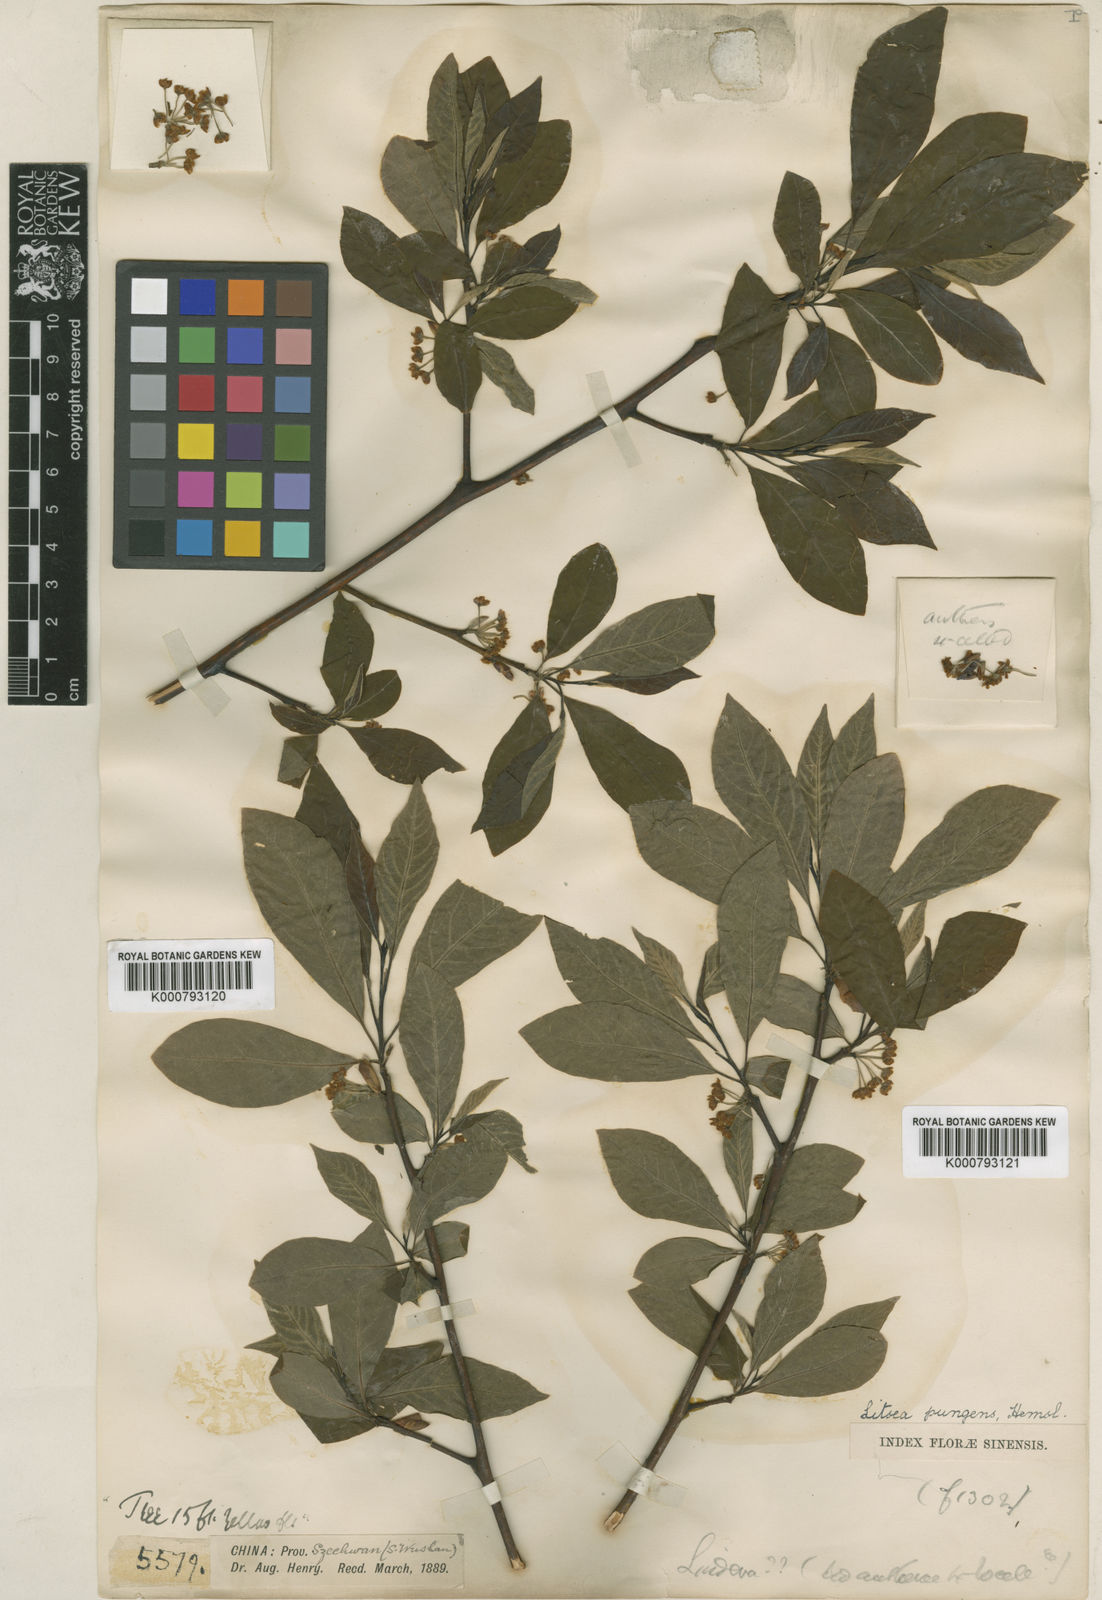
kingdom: Plantae
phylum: Tracheophyta
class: Magnoliopsida
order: Laurales
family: Lauraceae
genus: Litsea
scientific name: Litsea pungens
